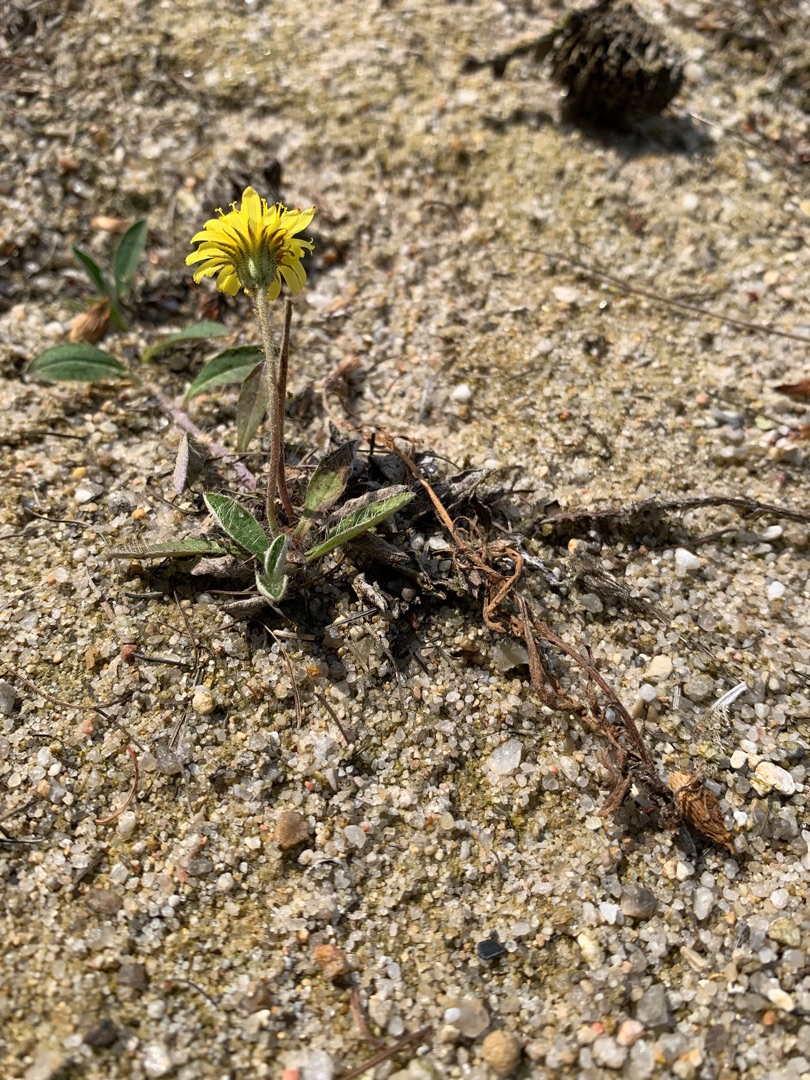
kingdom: Plantae
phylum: Tracheophyta
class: Magnoliopsida
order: Asterales
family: Asteraceae
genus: Pilosella
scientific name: Pilosella officinarum
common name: Håret høgeurt
